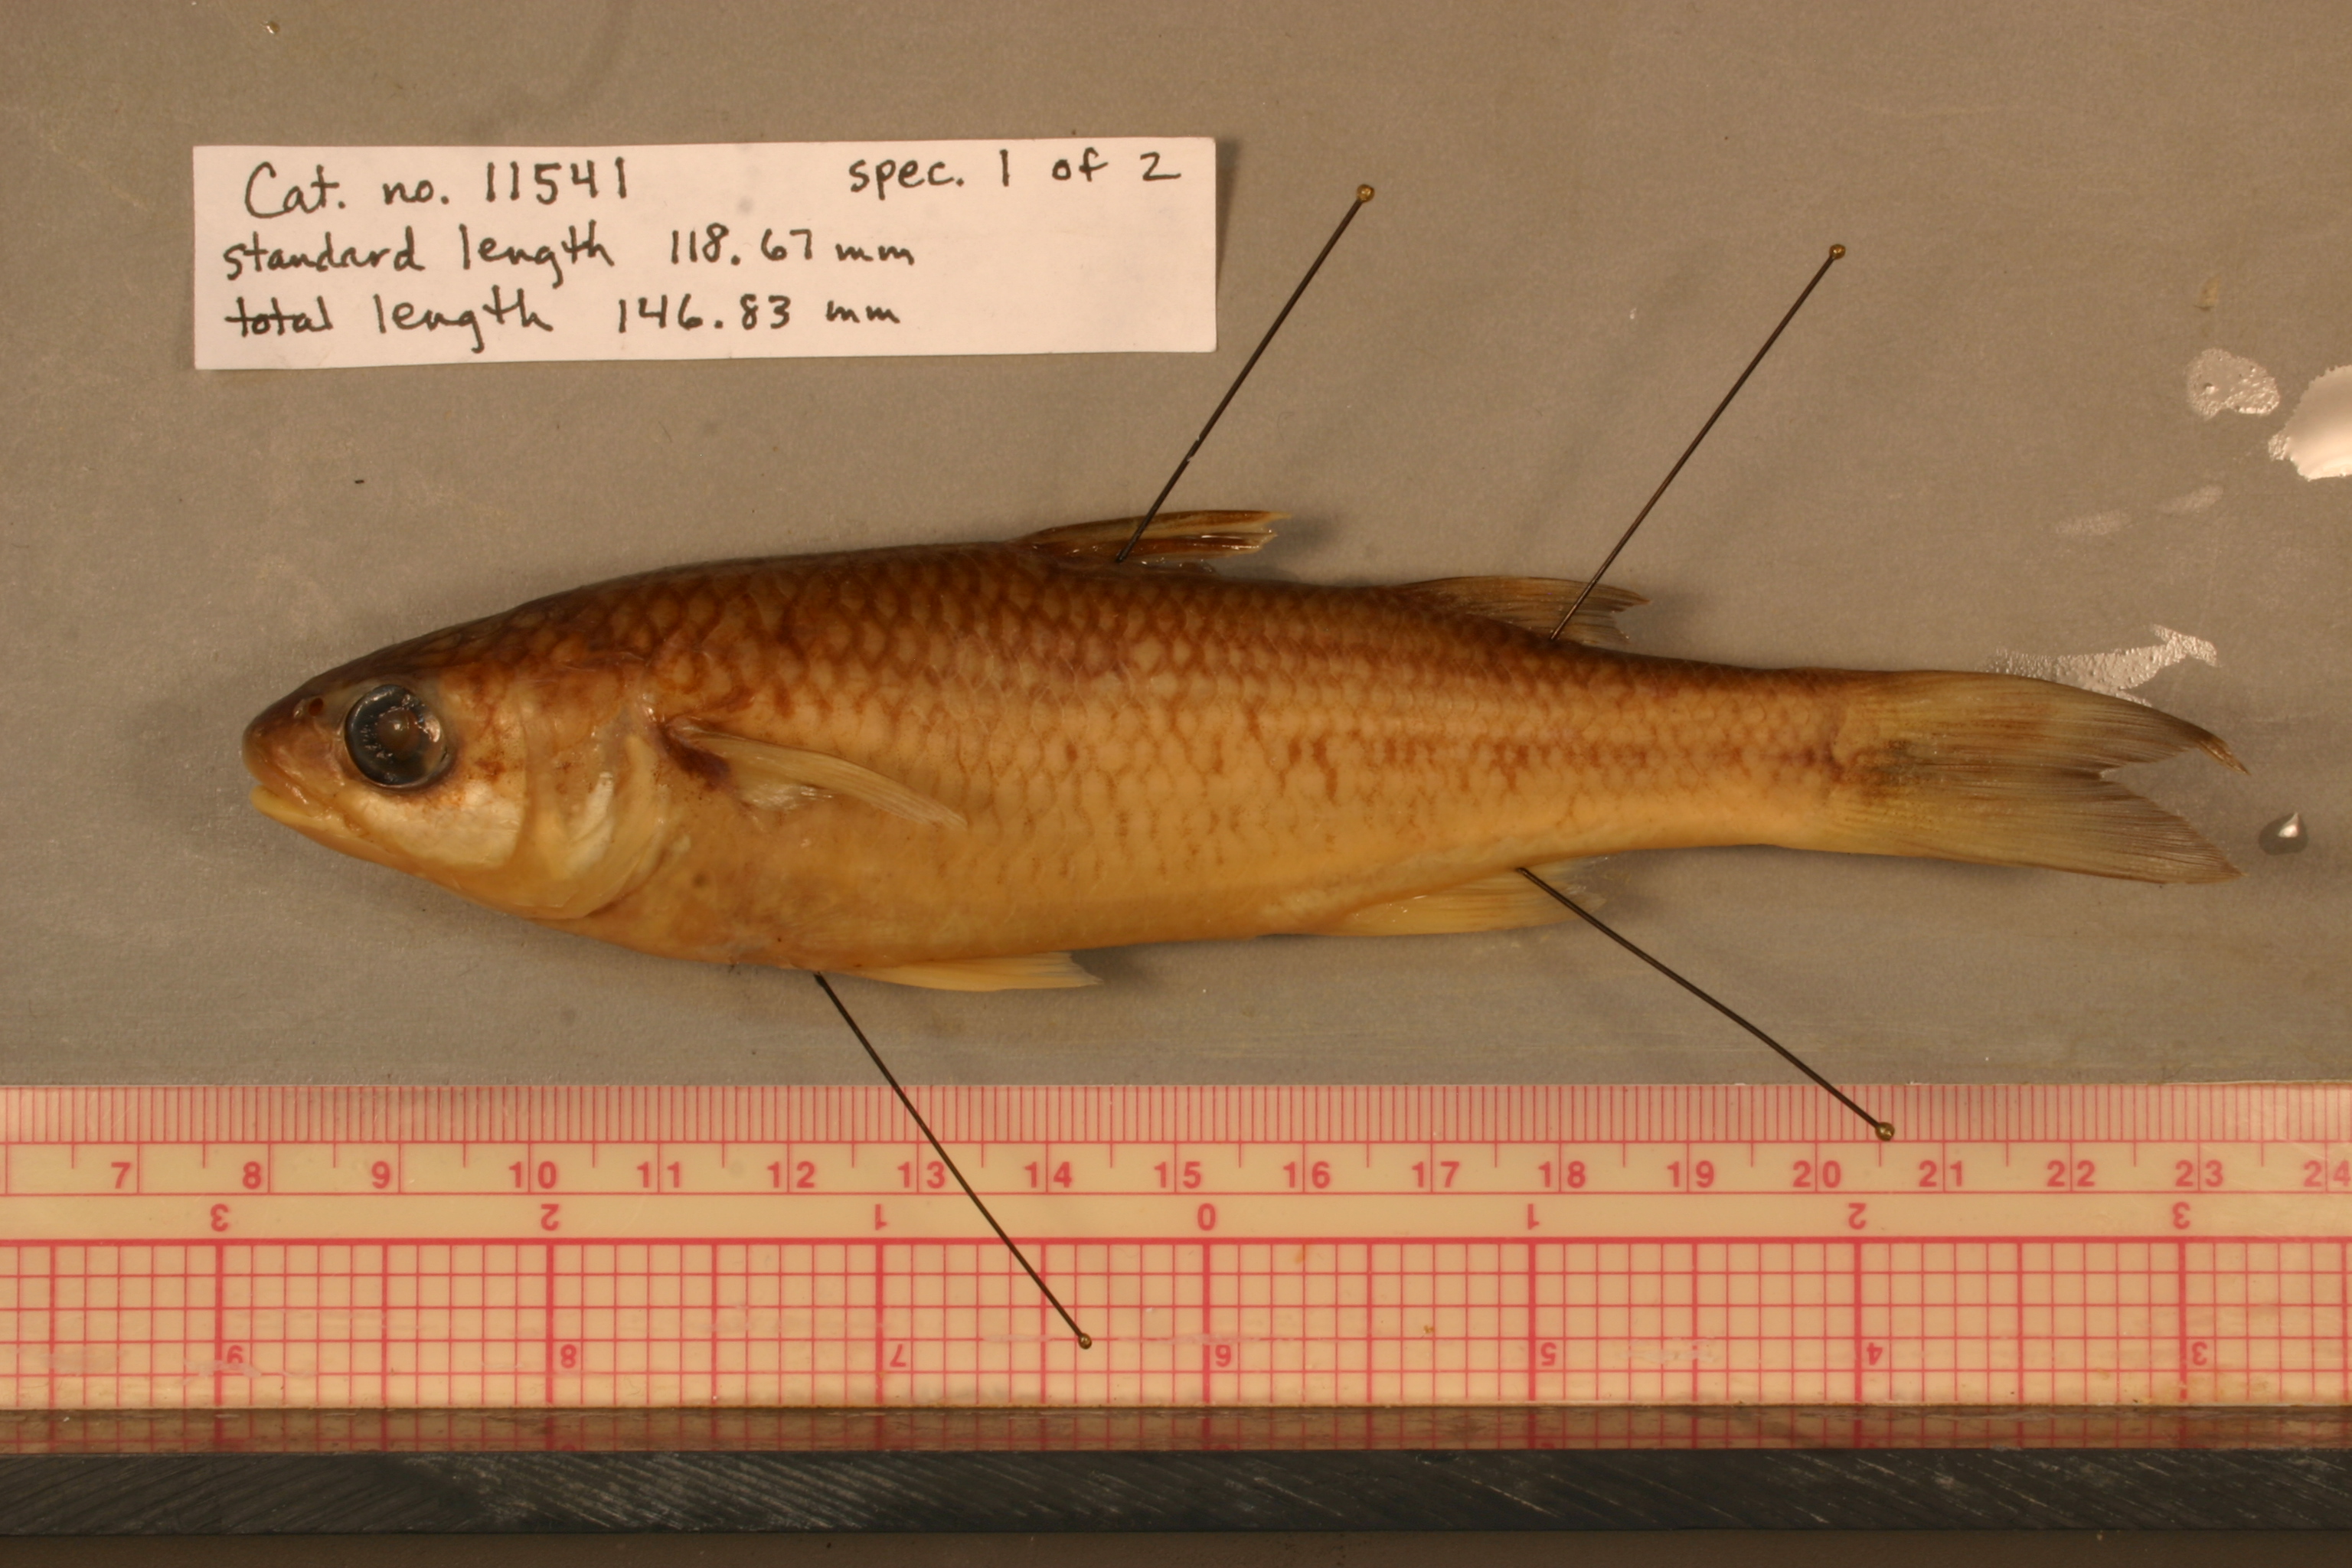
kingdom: Animalia
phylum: Chordata
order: Mugiliformes
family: Mugilidae
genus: Dajaus
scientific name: Dajaus monticola
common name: Mountain mullet
